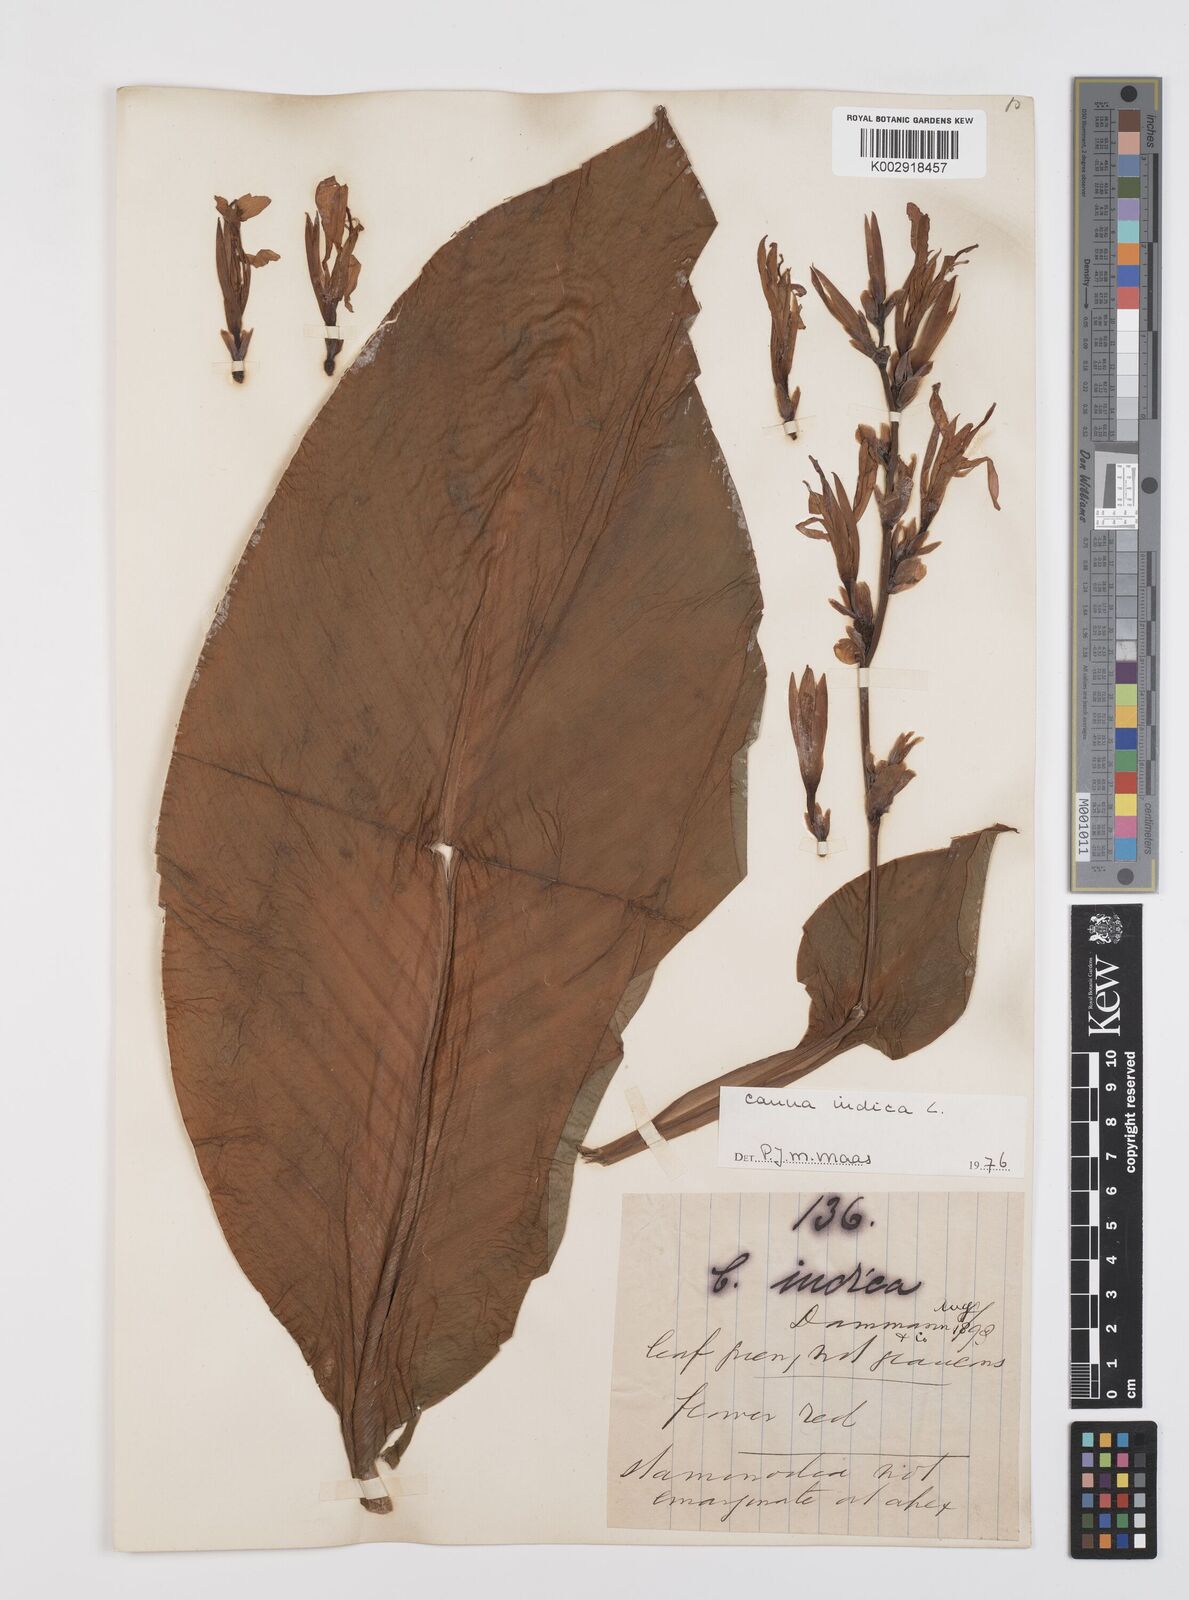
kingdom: Plantae
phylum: Tracheophyta
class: Liliopsida
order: Zingiberales
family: Cannaceae
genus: Canna
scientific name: Canna indica
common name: Indian shot
